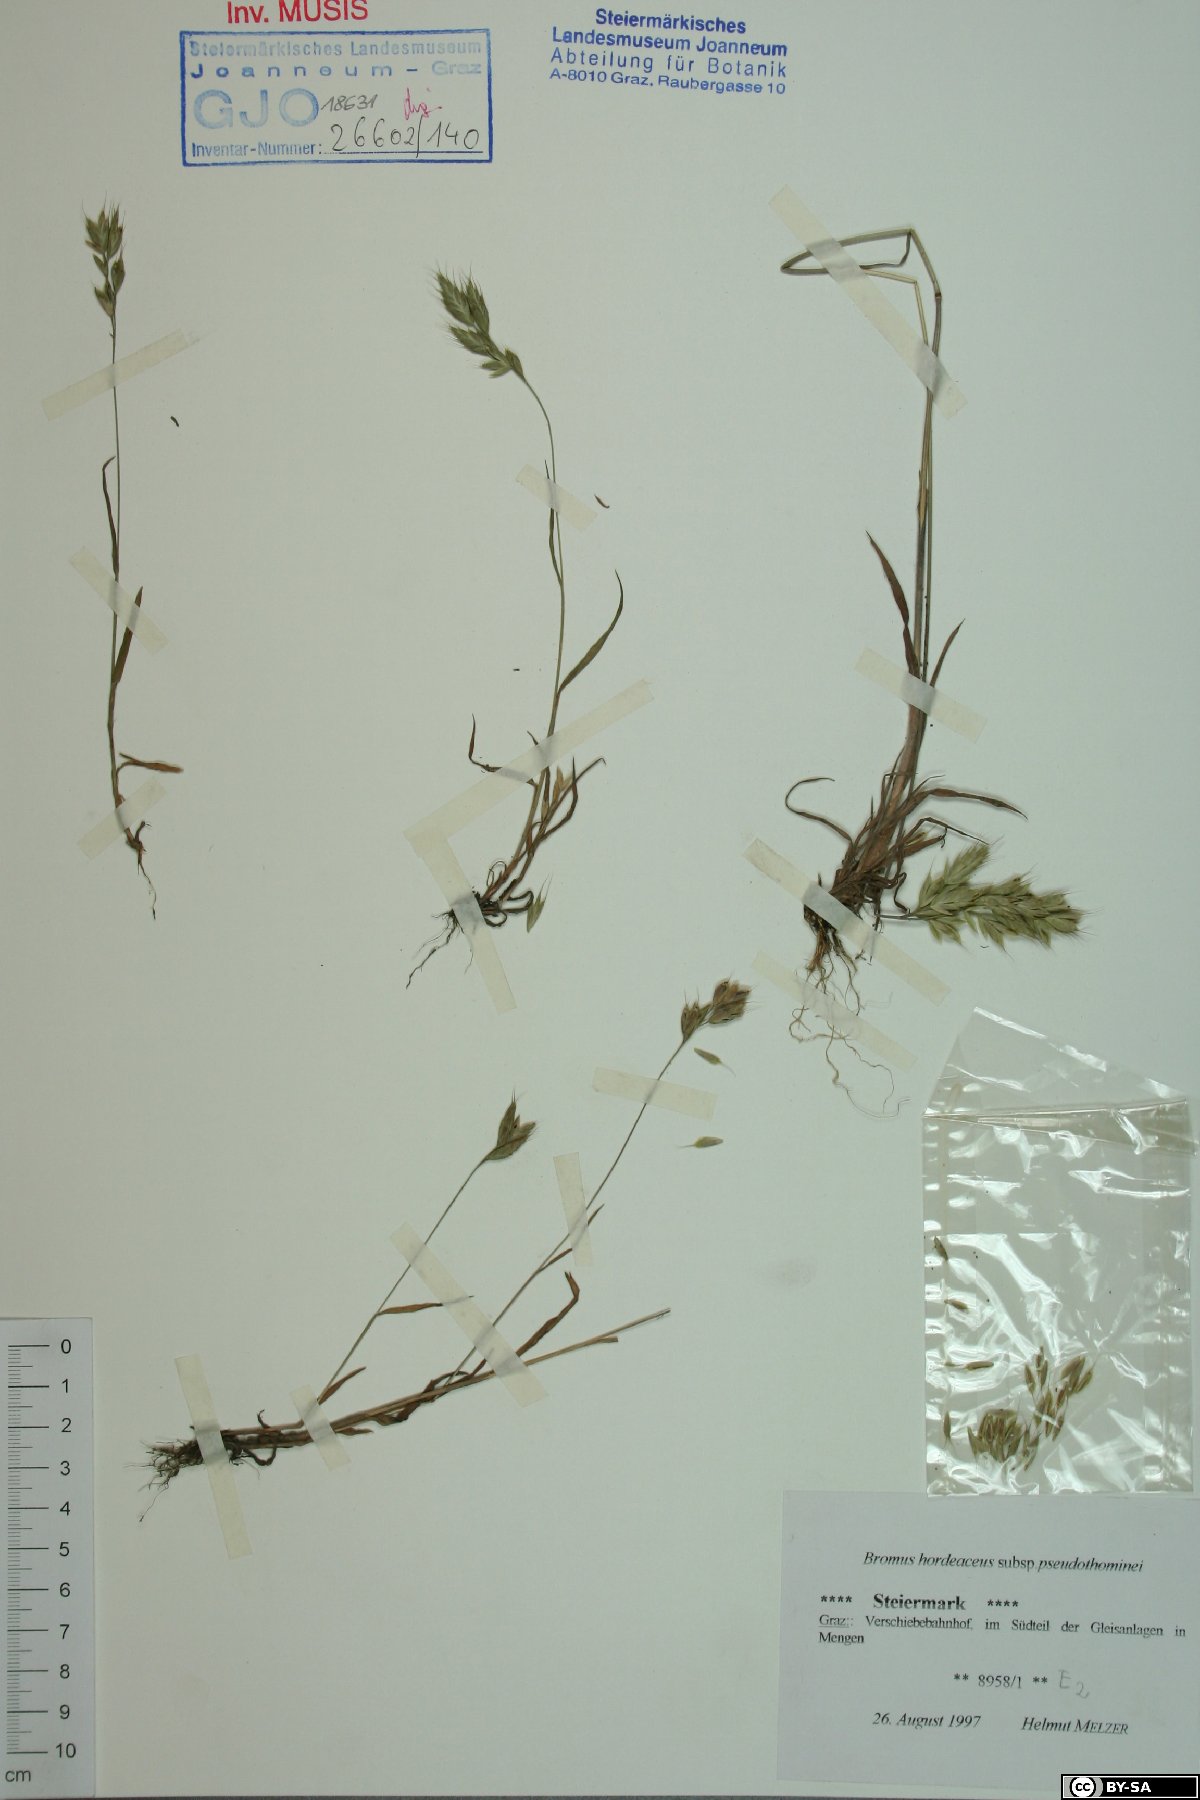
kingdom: Plantae
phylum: Tracheophyta
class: Liliopsida
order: Poales
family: Poaceae
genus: Bromus
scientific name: Bromus ferronii
